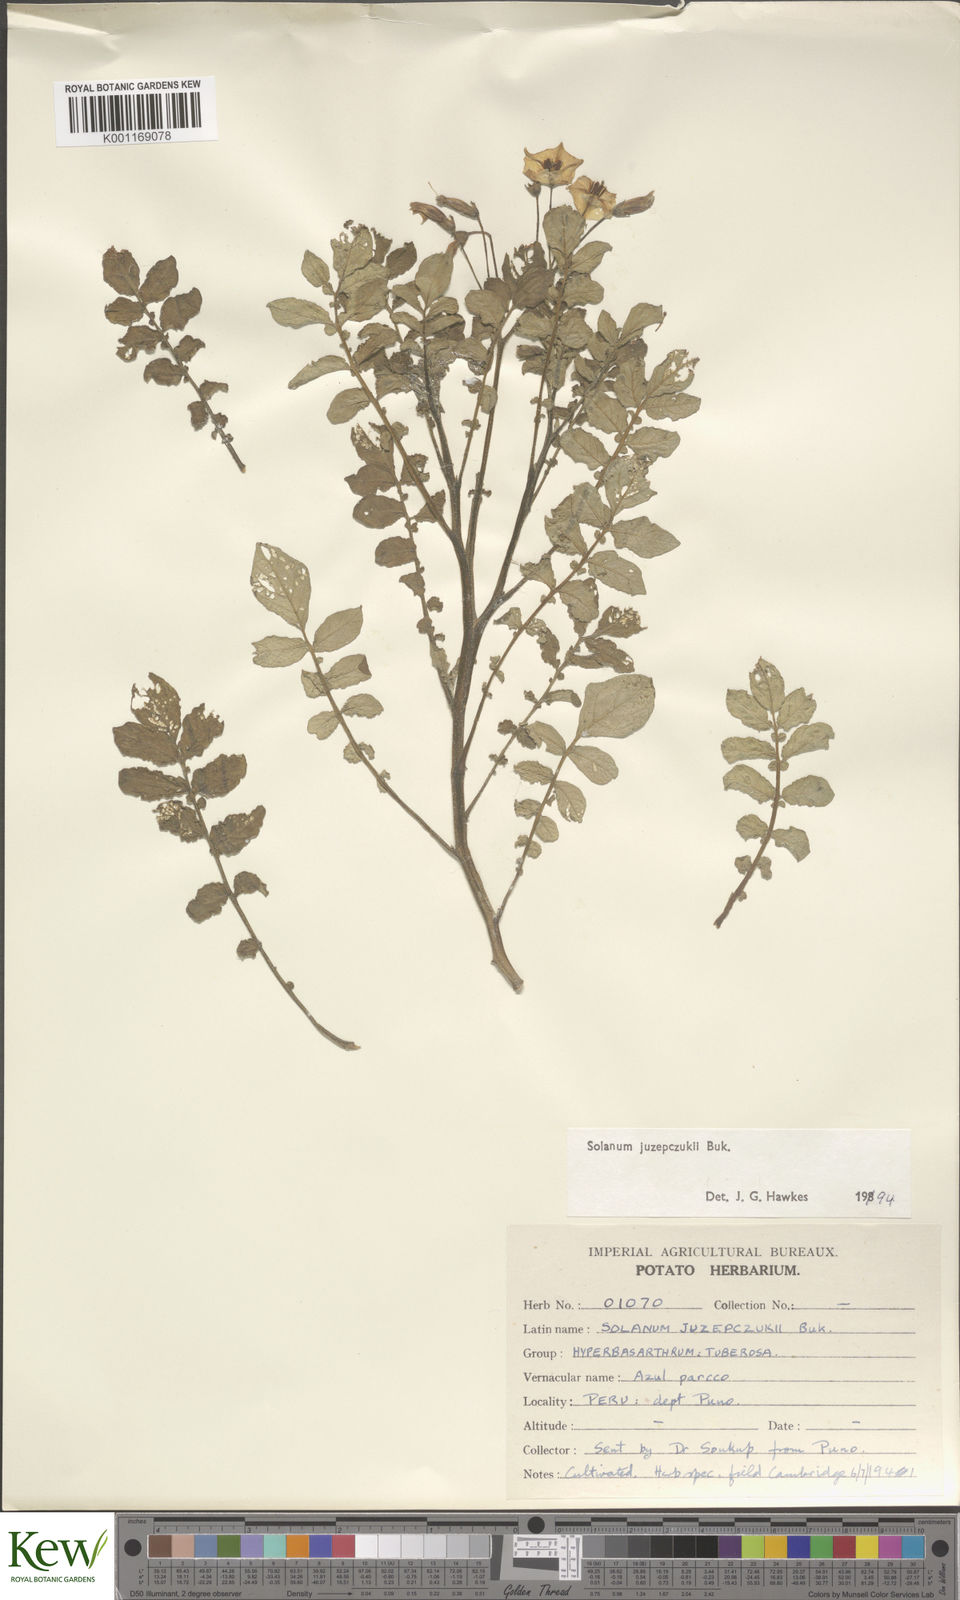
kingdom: Plantae
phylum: Tracheophyta
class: Magnoliopsida
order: Solanales
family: Solanaceae
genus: Solanum
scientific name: Solanum juzepczukii
